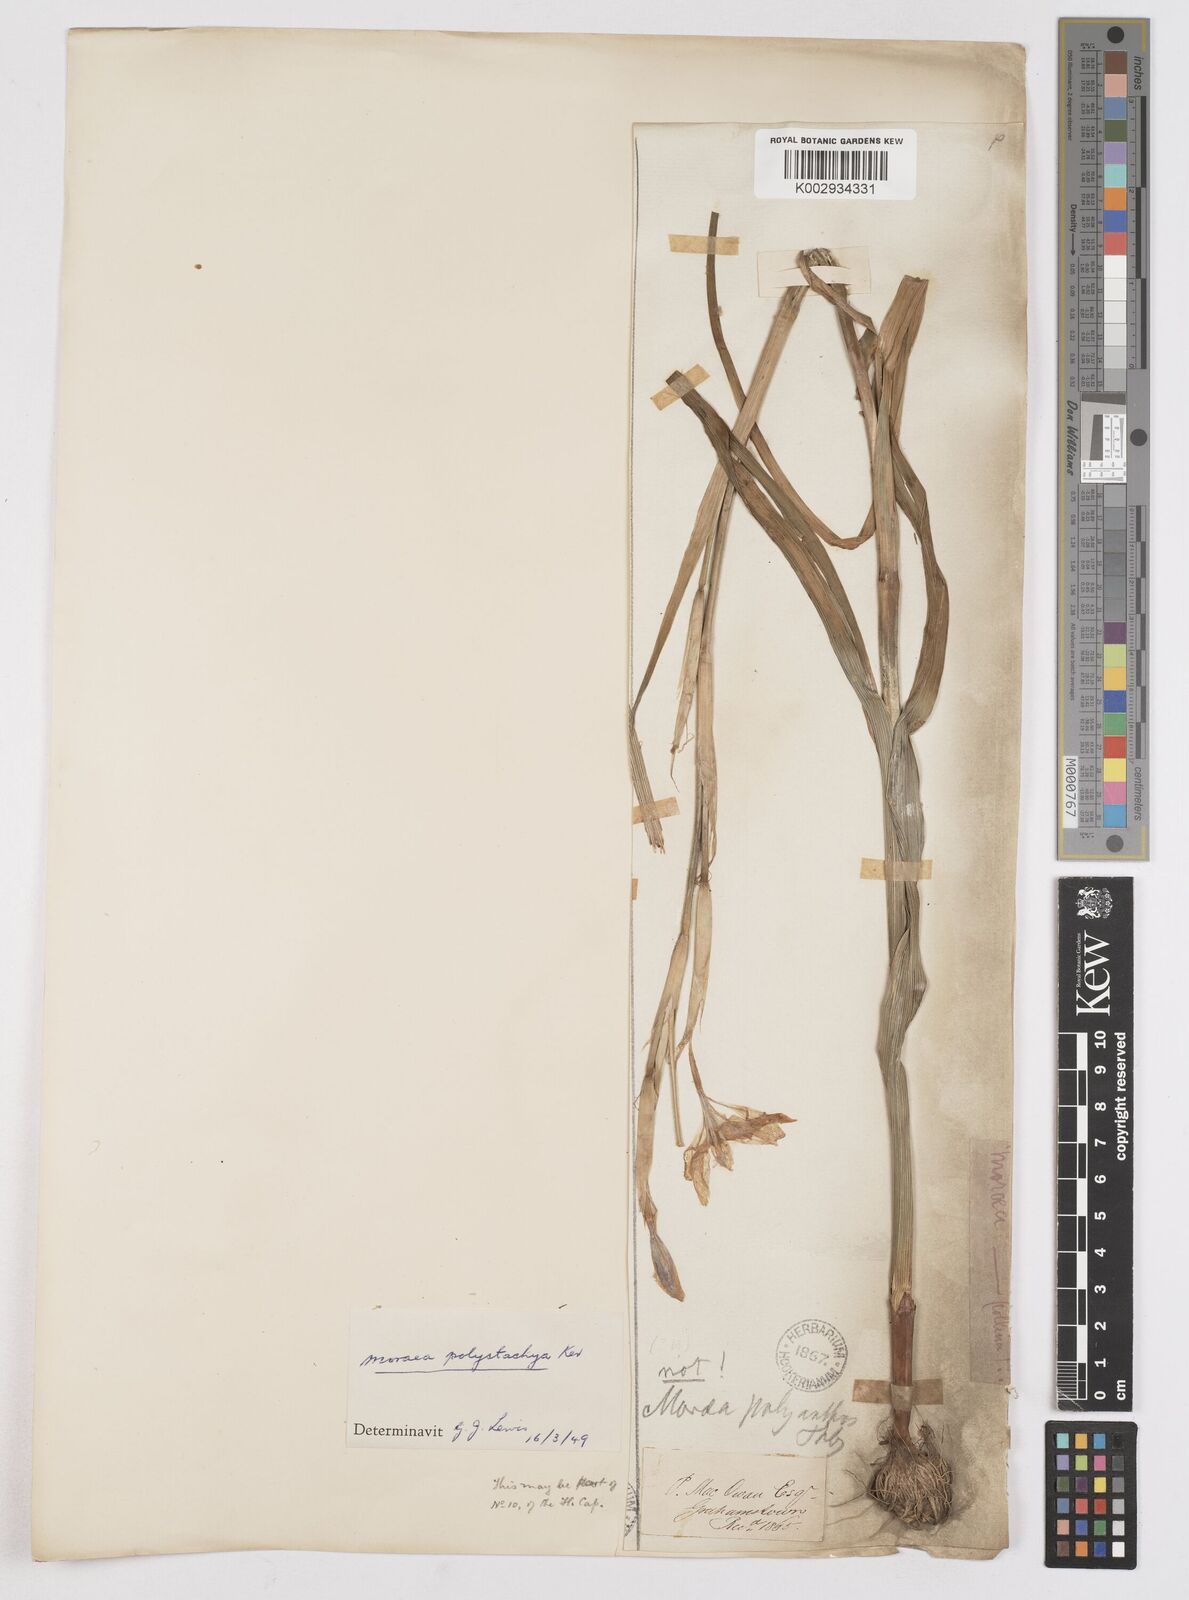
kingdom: Plantae
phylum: Tracheophyta
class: Liliopsida
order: Asparagales
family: Iridaceae
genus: Moraea
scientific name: Moraea polystachya
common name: Blue-tulip
